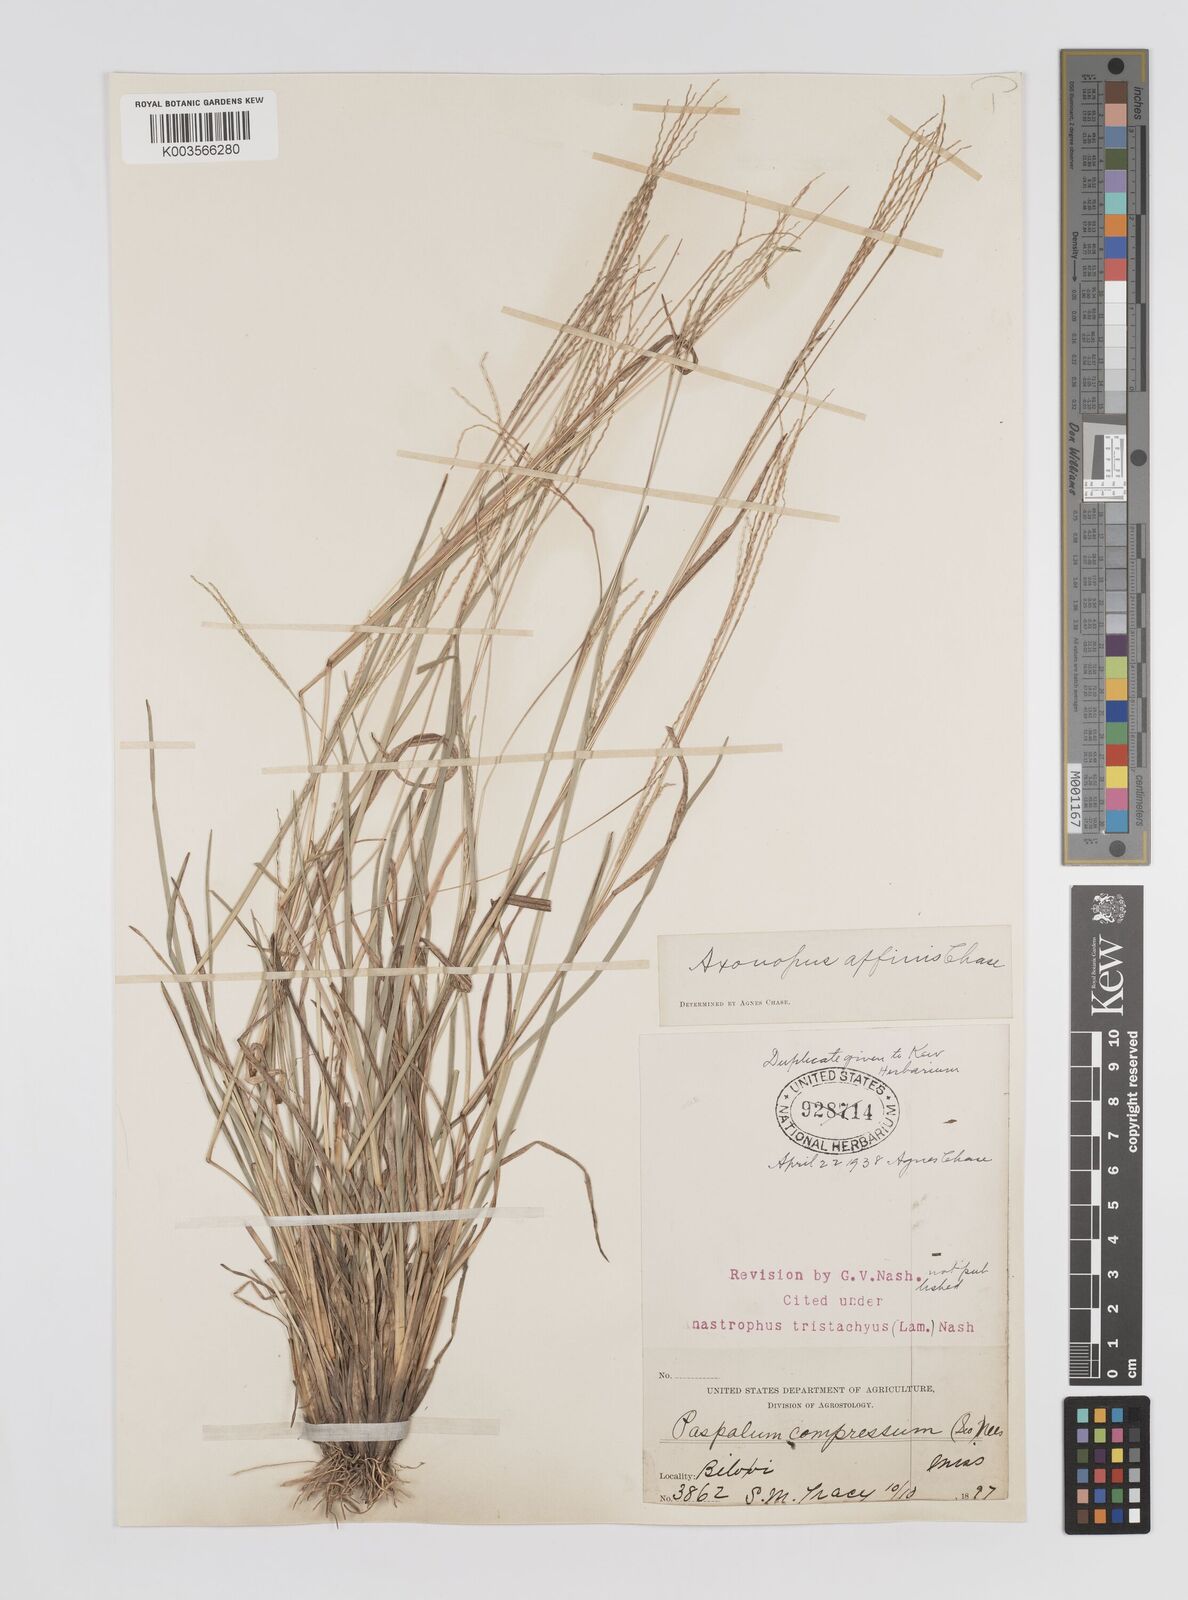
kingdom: Plantae
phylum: Tracheophyta
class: Liliopsida
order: Poales
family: Poaceae
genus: Axonopus
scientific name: Axonopus fissifolius
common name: Common carpetgrass
